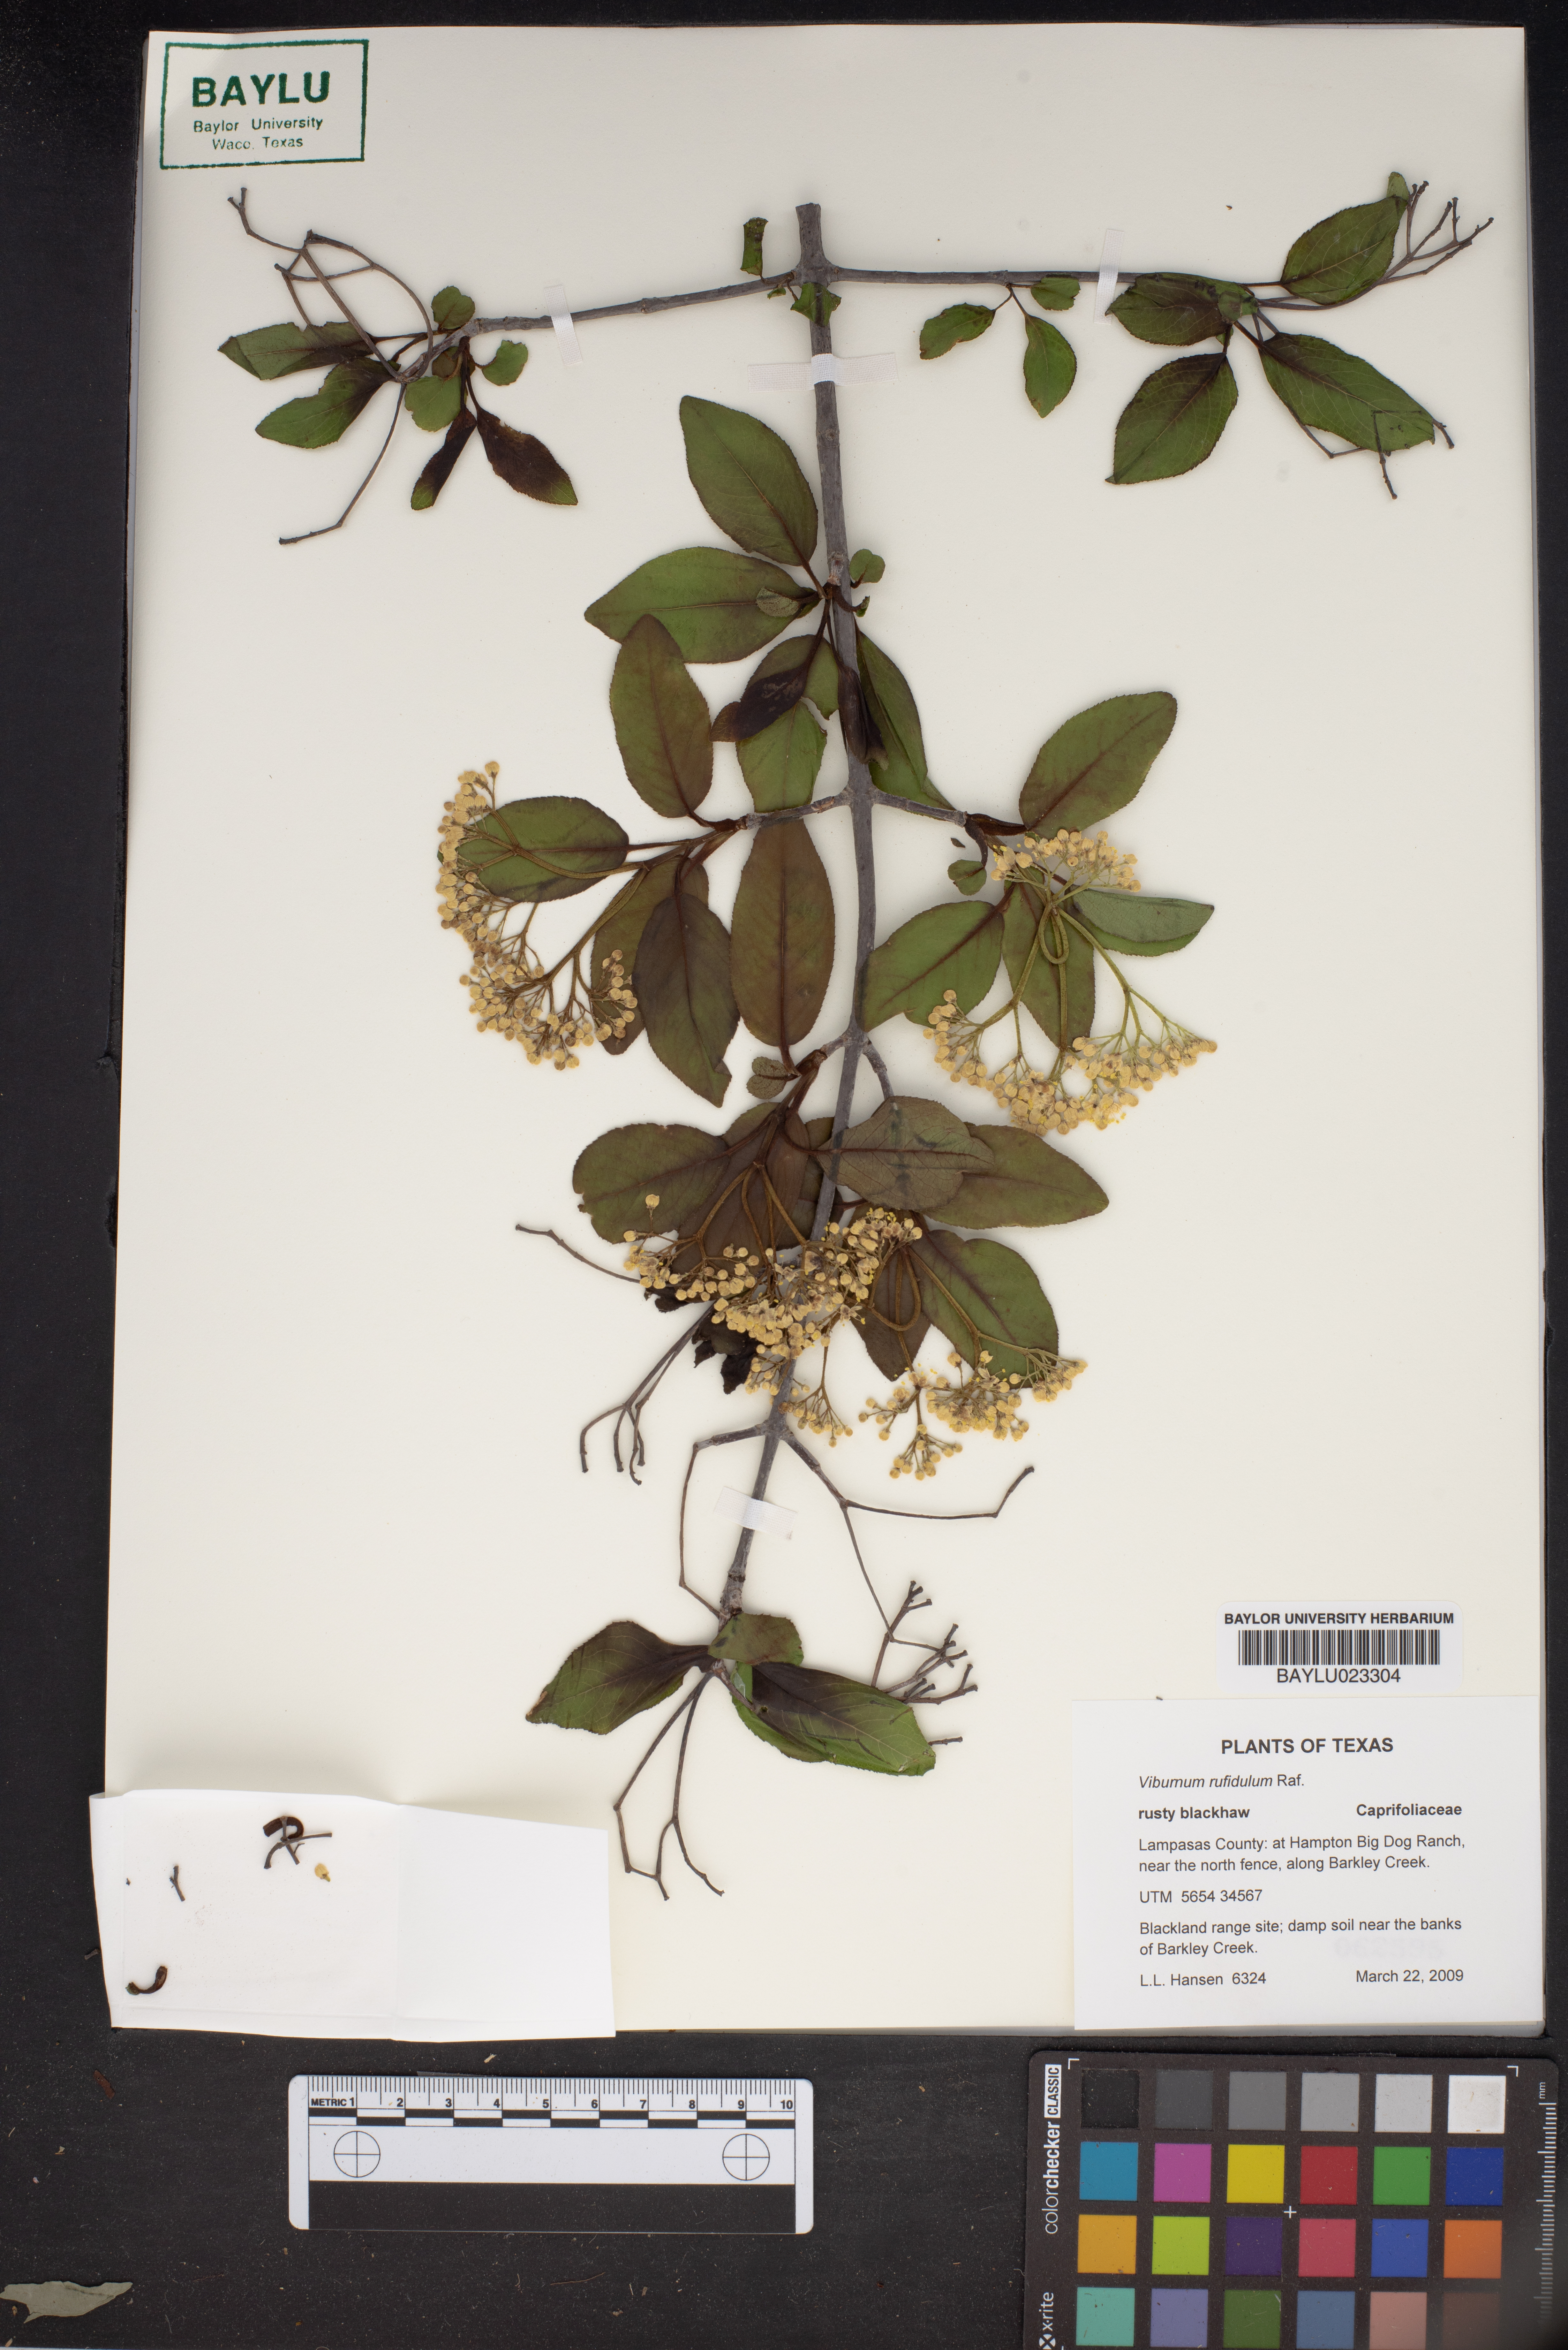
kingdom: Plantae
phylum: Tracheophyta
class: Magnoliopsida
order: Dipsacales
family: Viburnaceae
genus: Viburnum
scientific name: Viburnum rufidulum
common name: Blue haw
